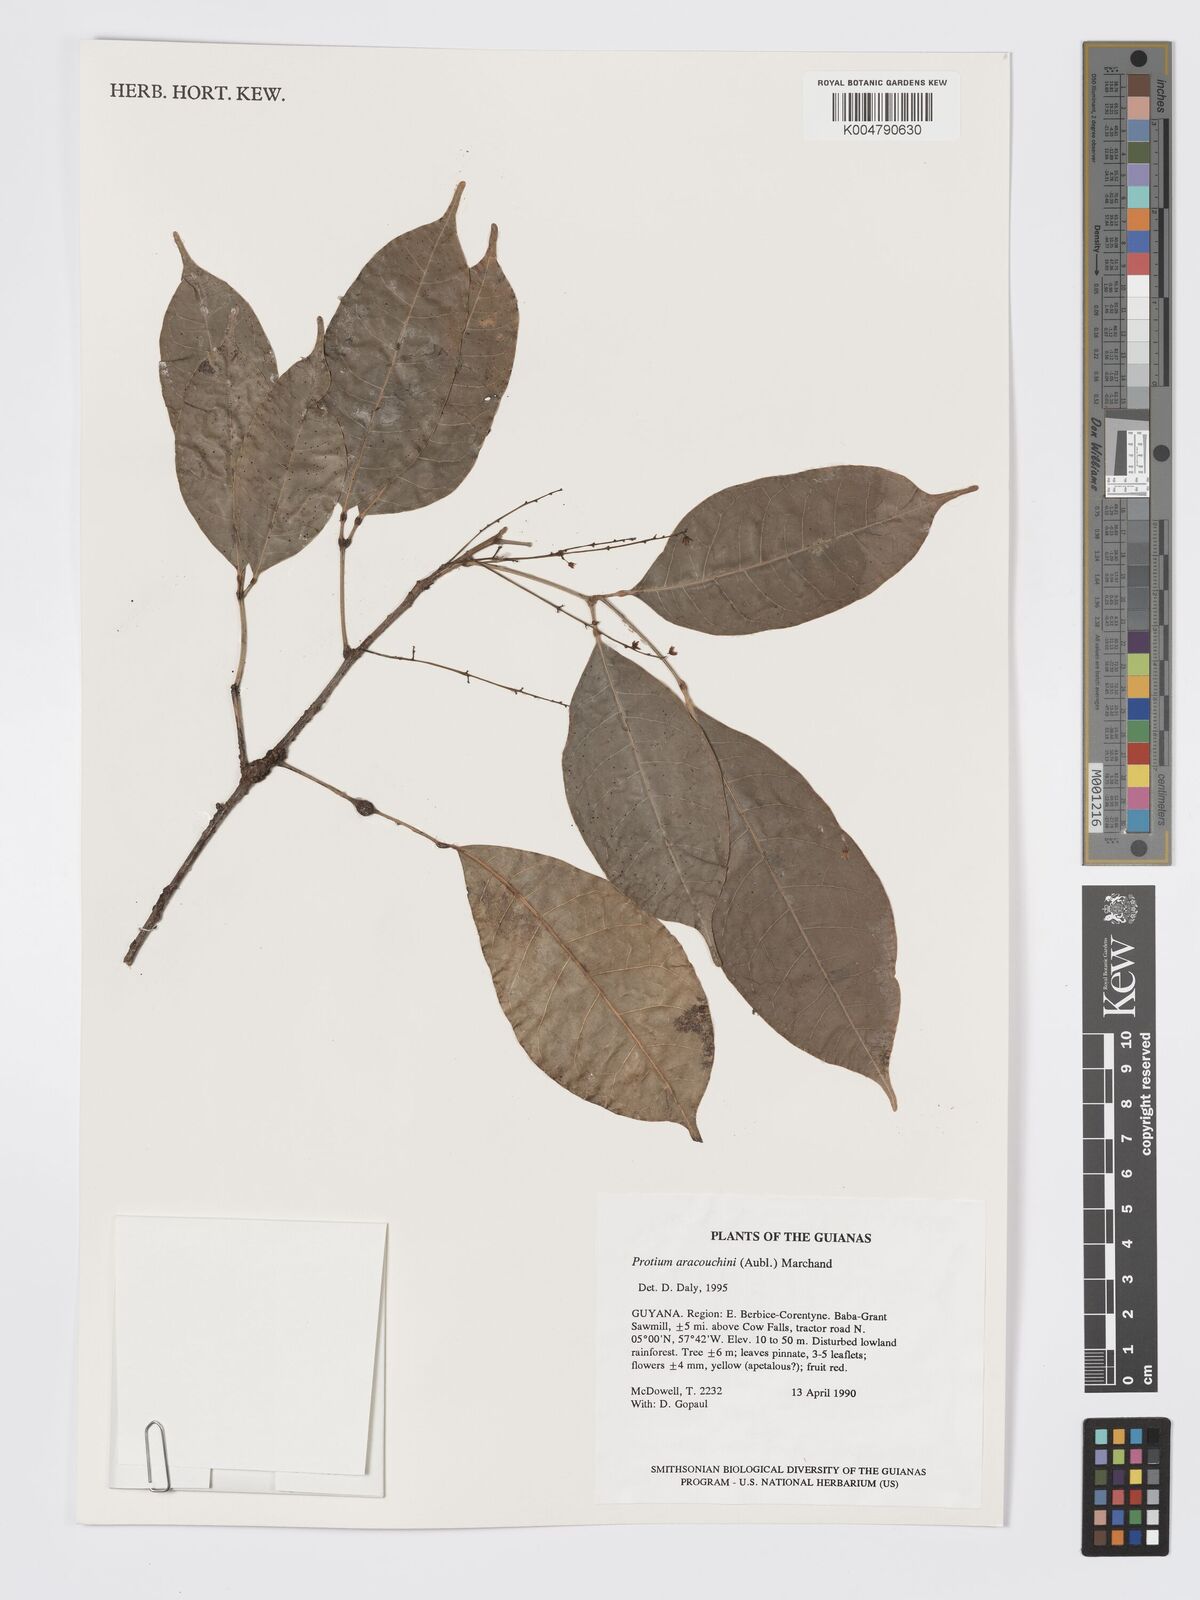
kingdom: Plantae
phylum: Tracheophyta
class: Magnoliopsida
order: Sapindales
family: Burseraceae
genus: Protium
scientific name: Protium aracouchini
